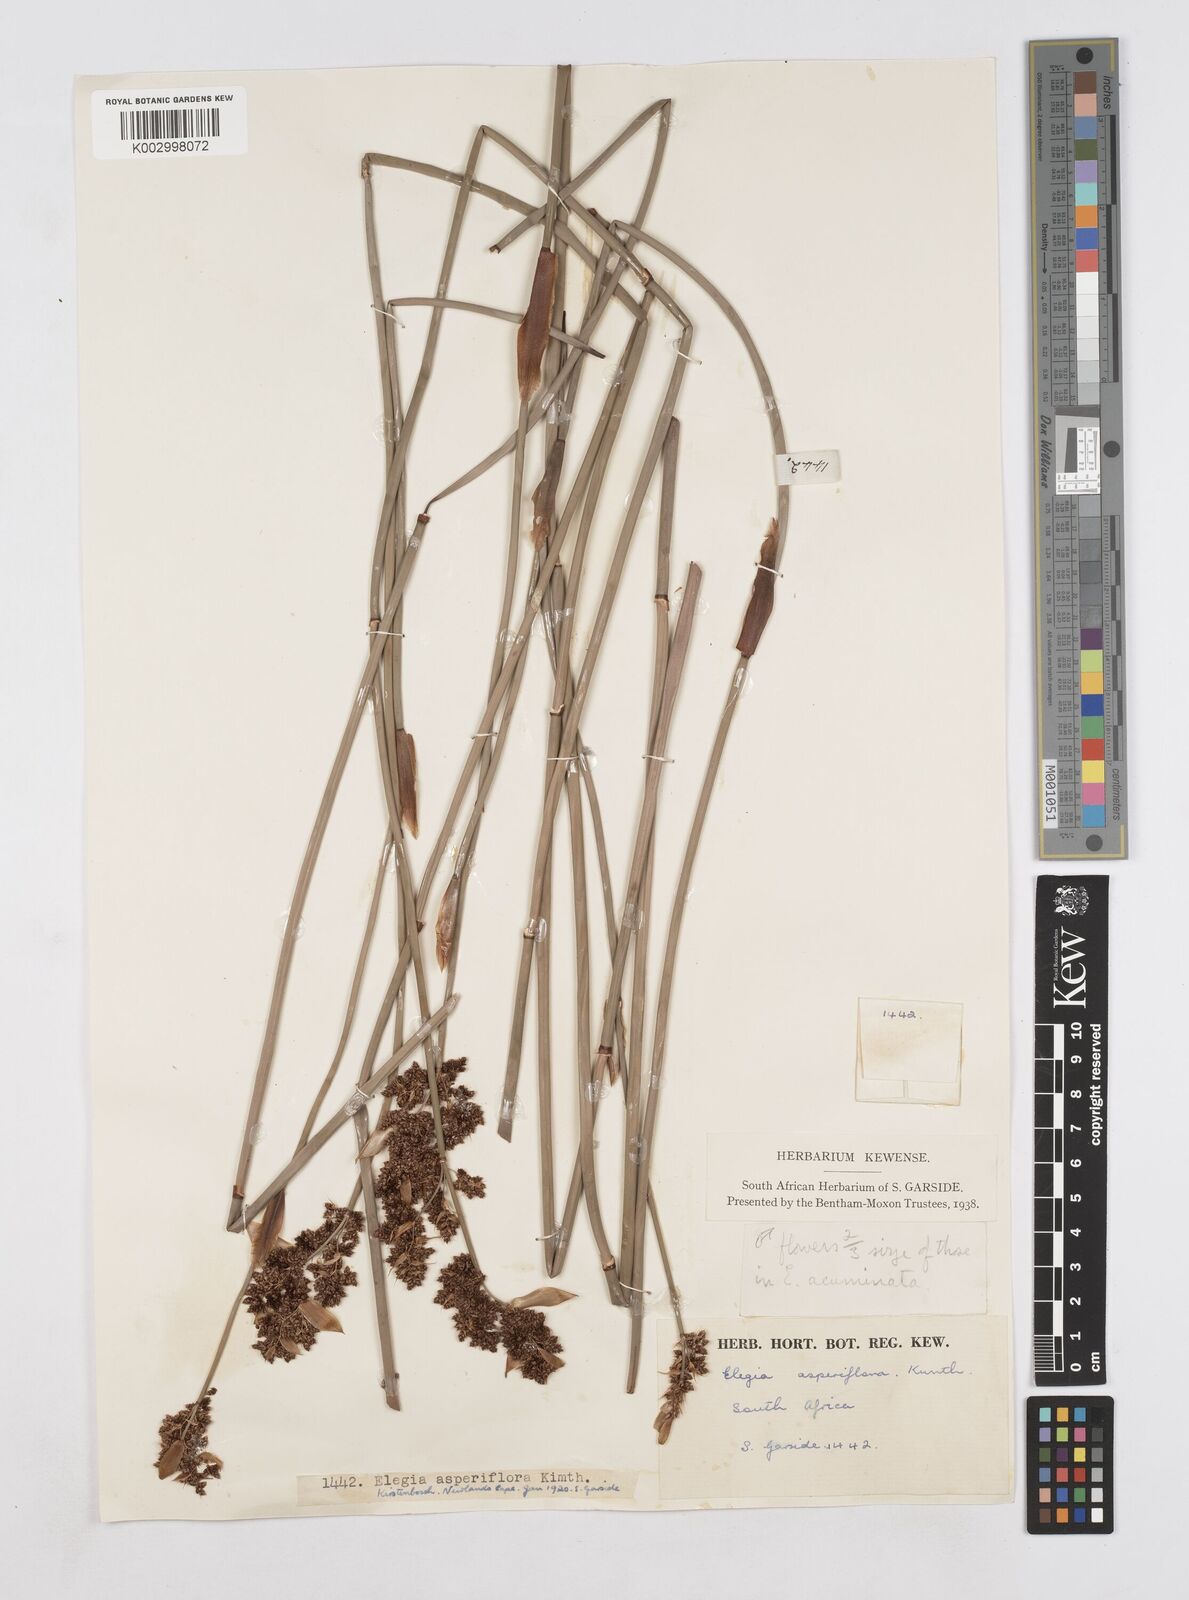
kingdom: Plantae
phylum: Tracheophyta
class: Liliopsida
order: Poales
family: Restionaceae
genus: Elegia
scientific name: Elegia
